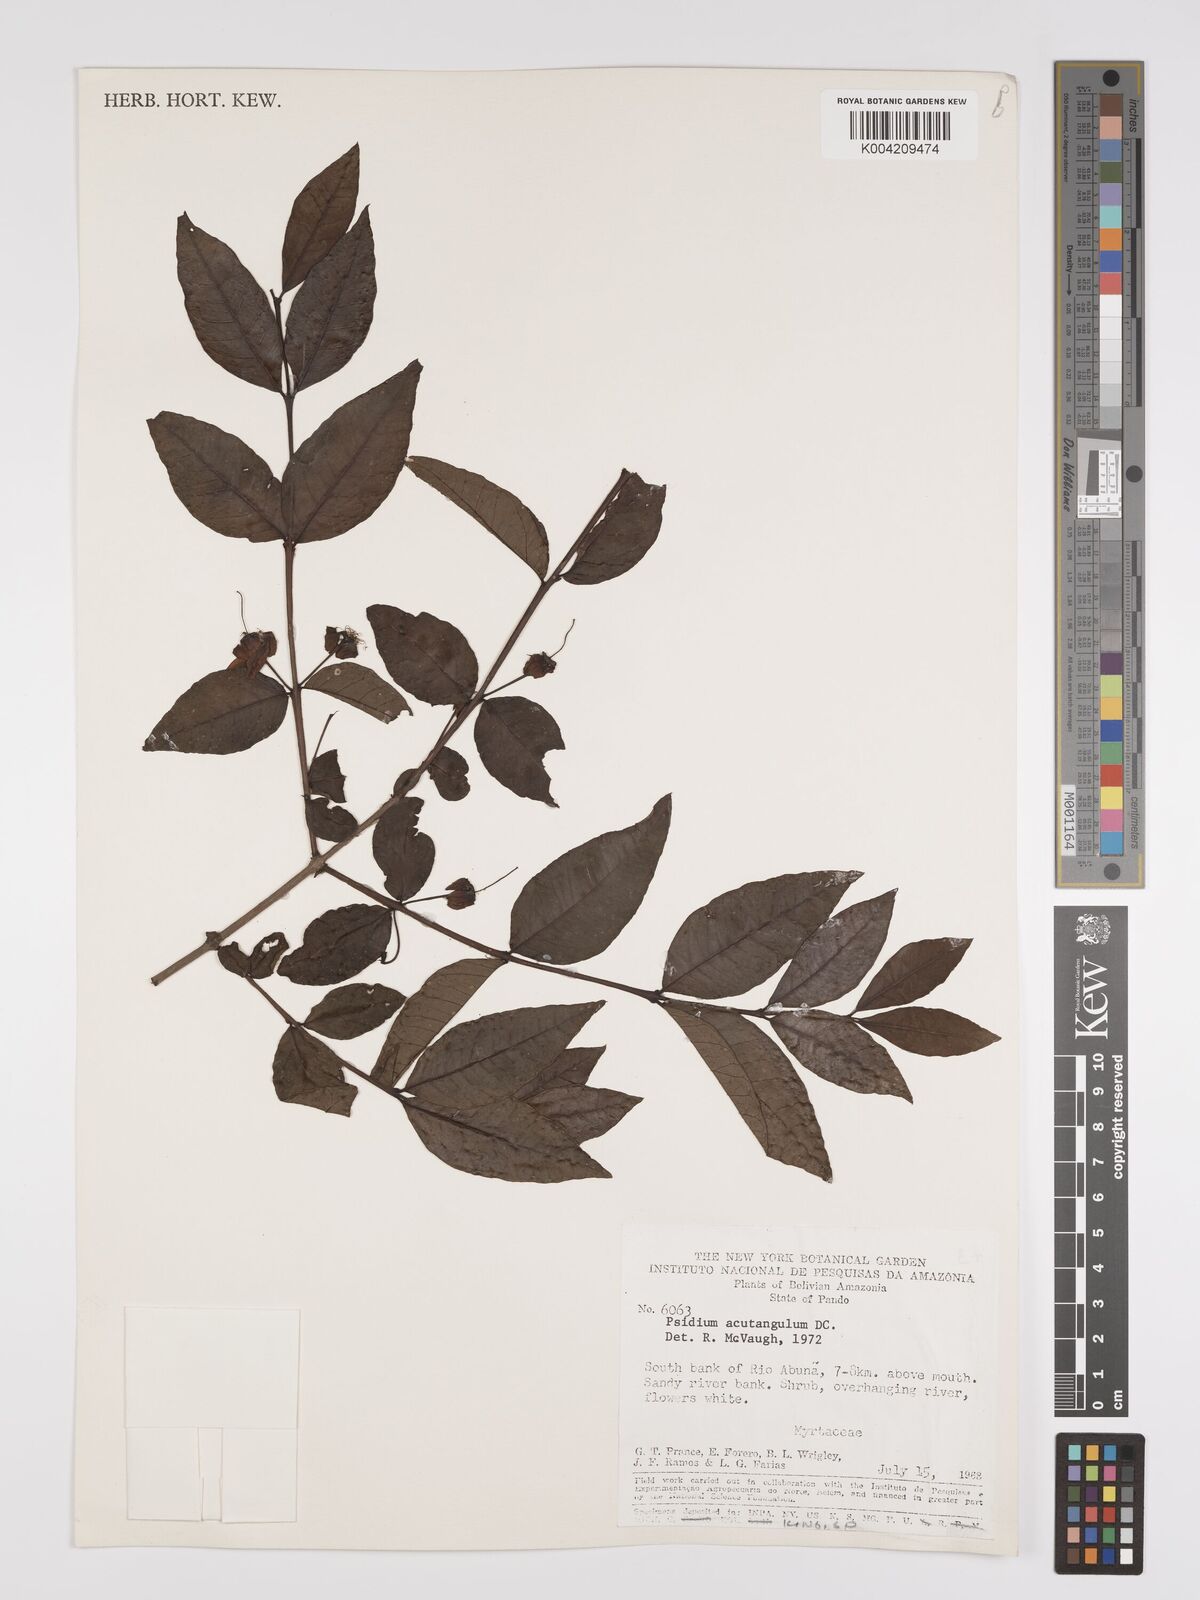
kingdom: Plantae
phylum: Tracheophyta
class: Magnoliopsida
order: Myrtales
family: Myrtaceae
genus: Psidium
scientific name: Psidium acutangulum
